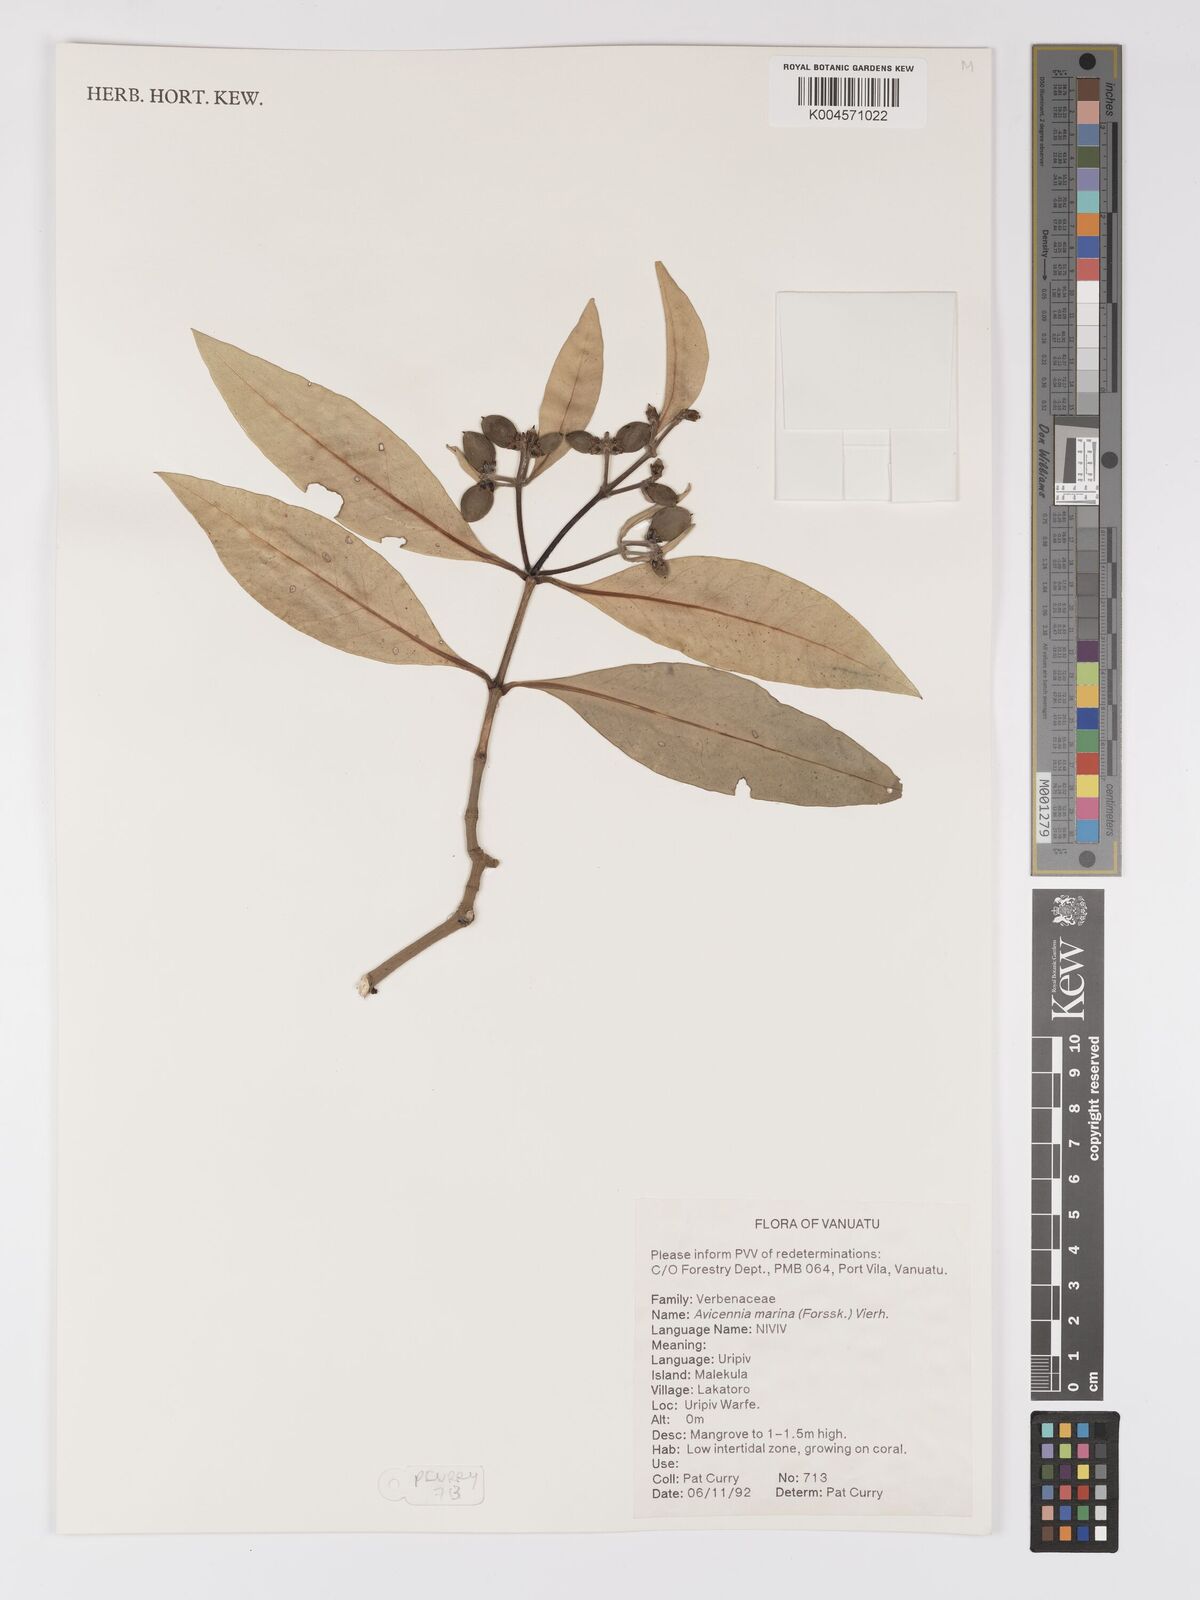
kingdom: Plantae
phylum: Tracheophyta
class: Magnoliopsida
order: Lamiales
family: Acanthaceae
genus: Avicennia
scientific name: Avicennia marina
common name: Gray mangrove
